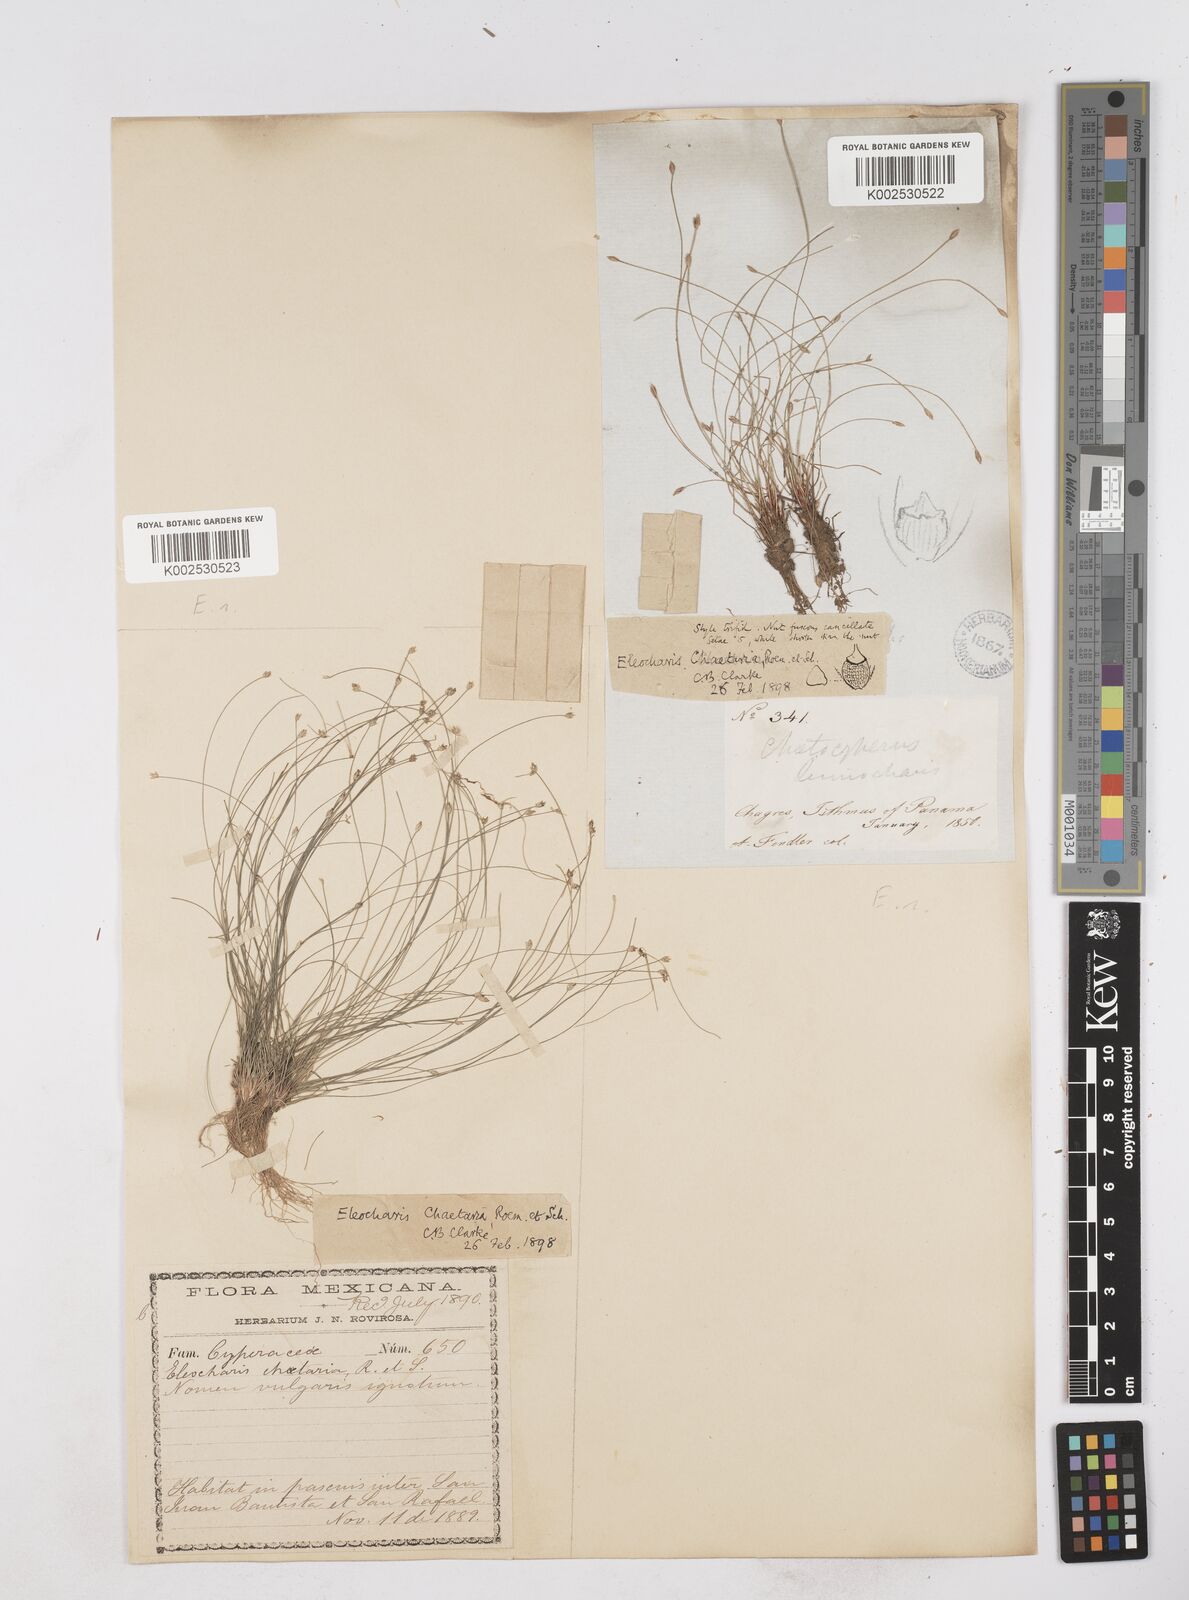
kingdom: Plantae
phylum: Tracheophyta
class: Liliopsida
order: Poales
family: Cyperaceae
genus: Eleocharis
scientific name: Eleocharis retroflexa
